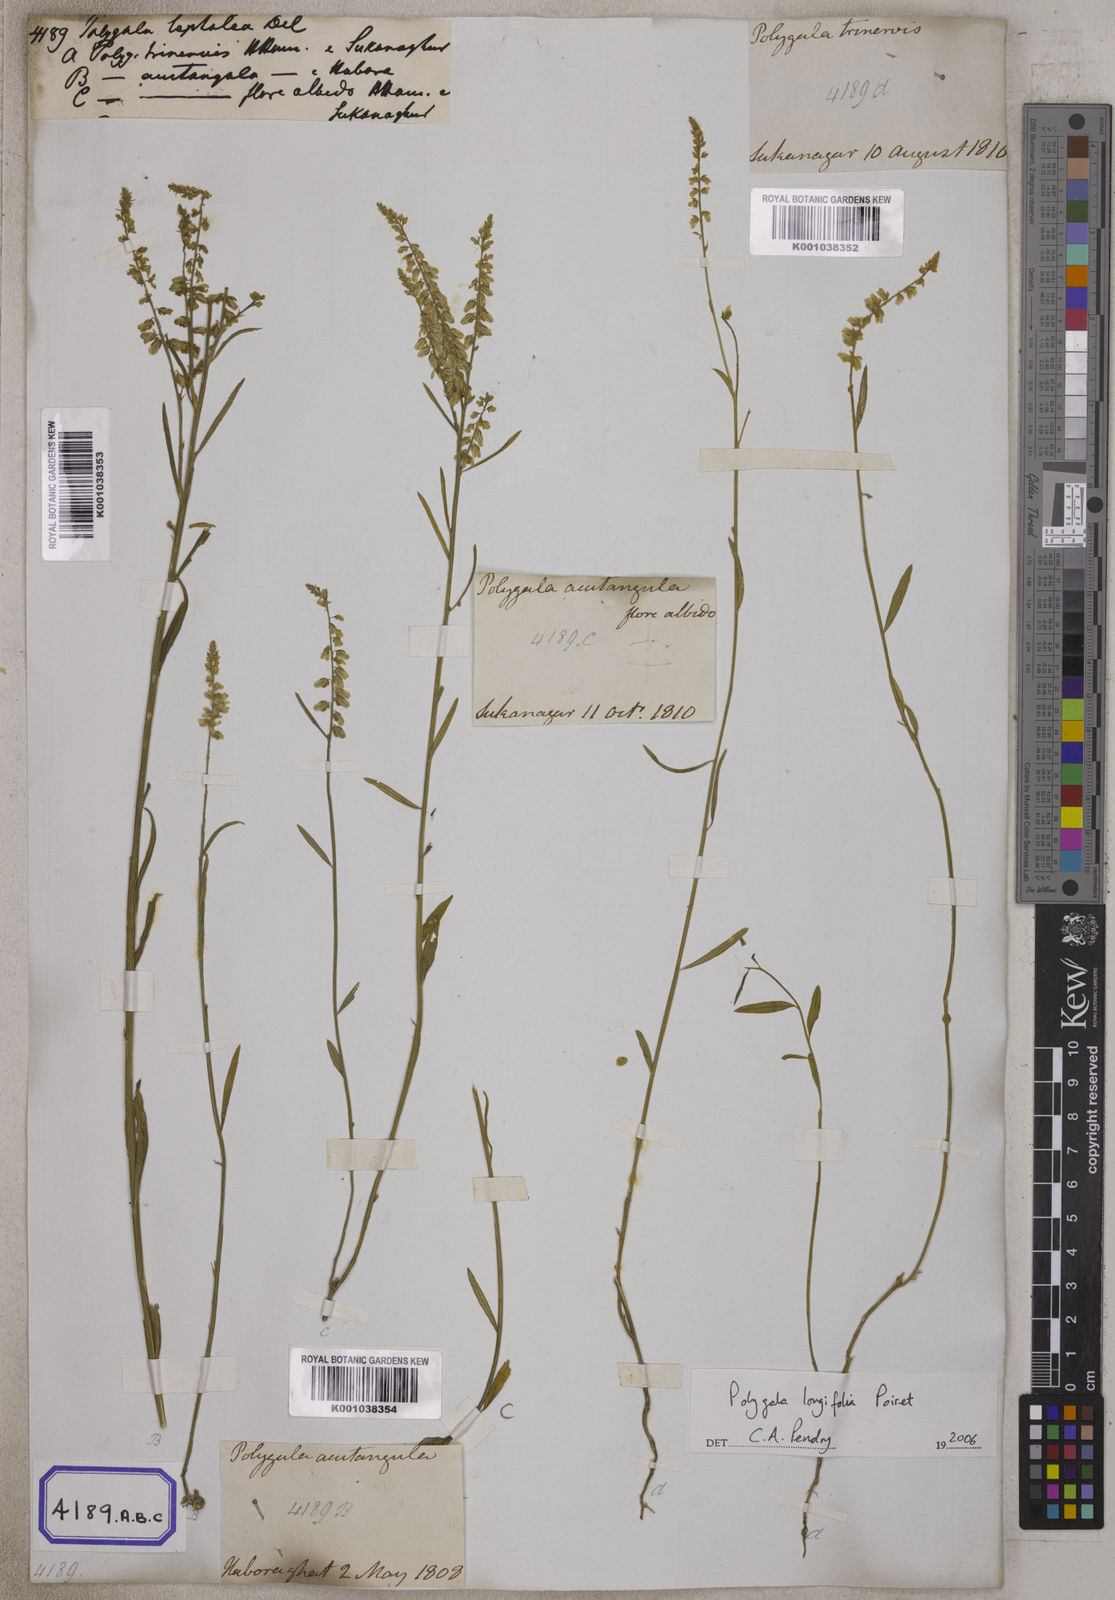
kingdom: Plantae
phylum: Tracheophyta
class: Magnoliopsida
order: Fabales
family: Polygalaceae
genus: Polygala
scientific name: Polygala longifolia
